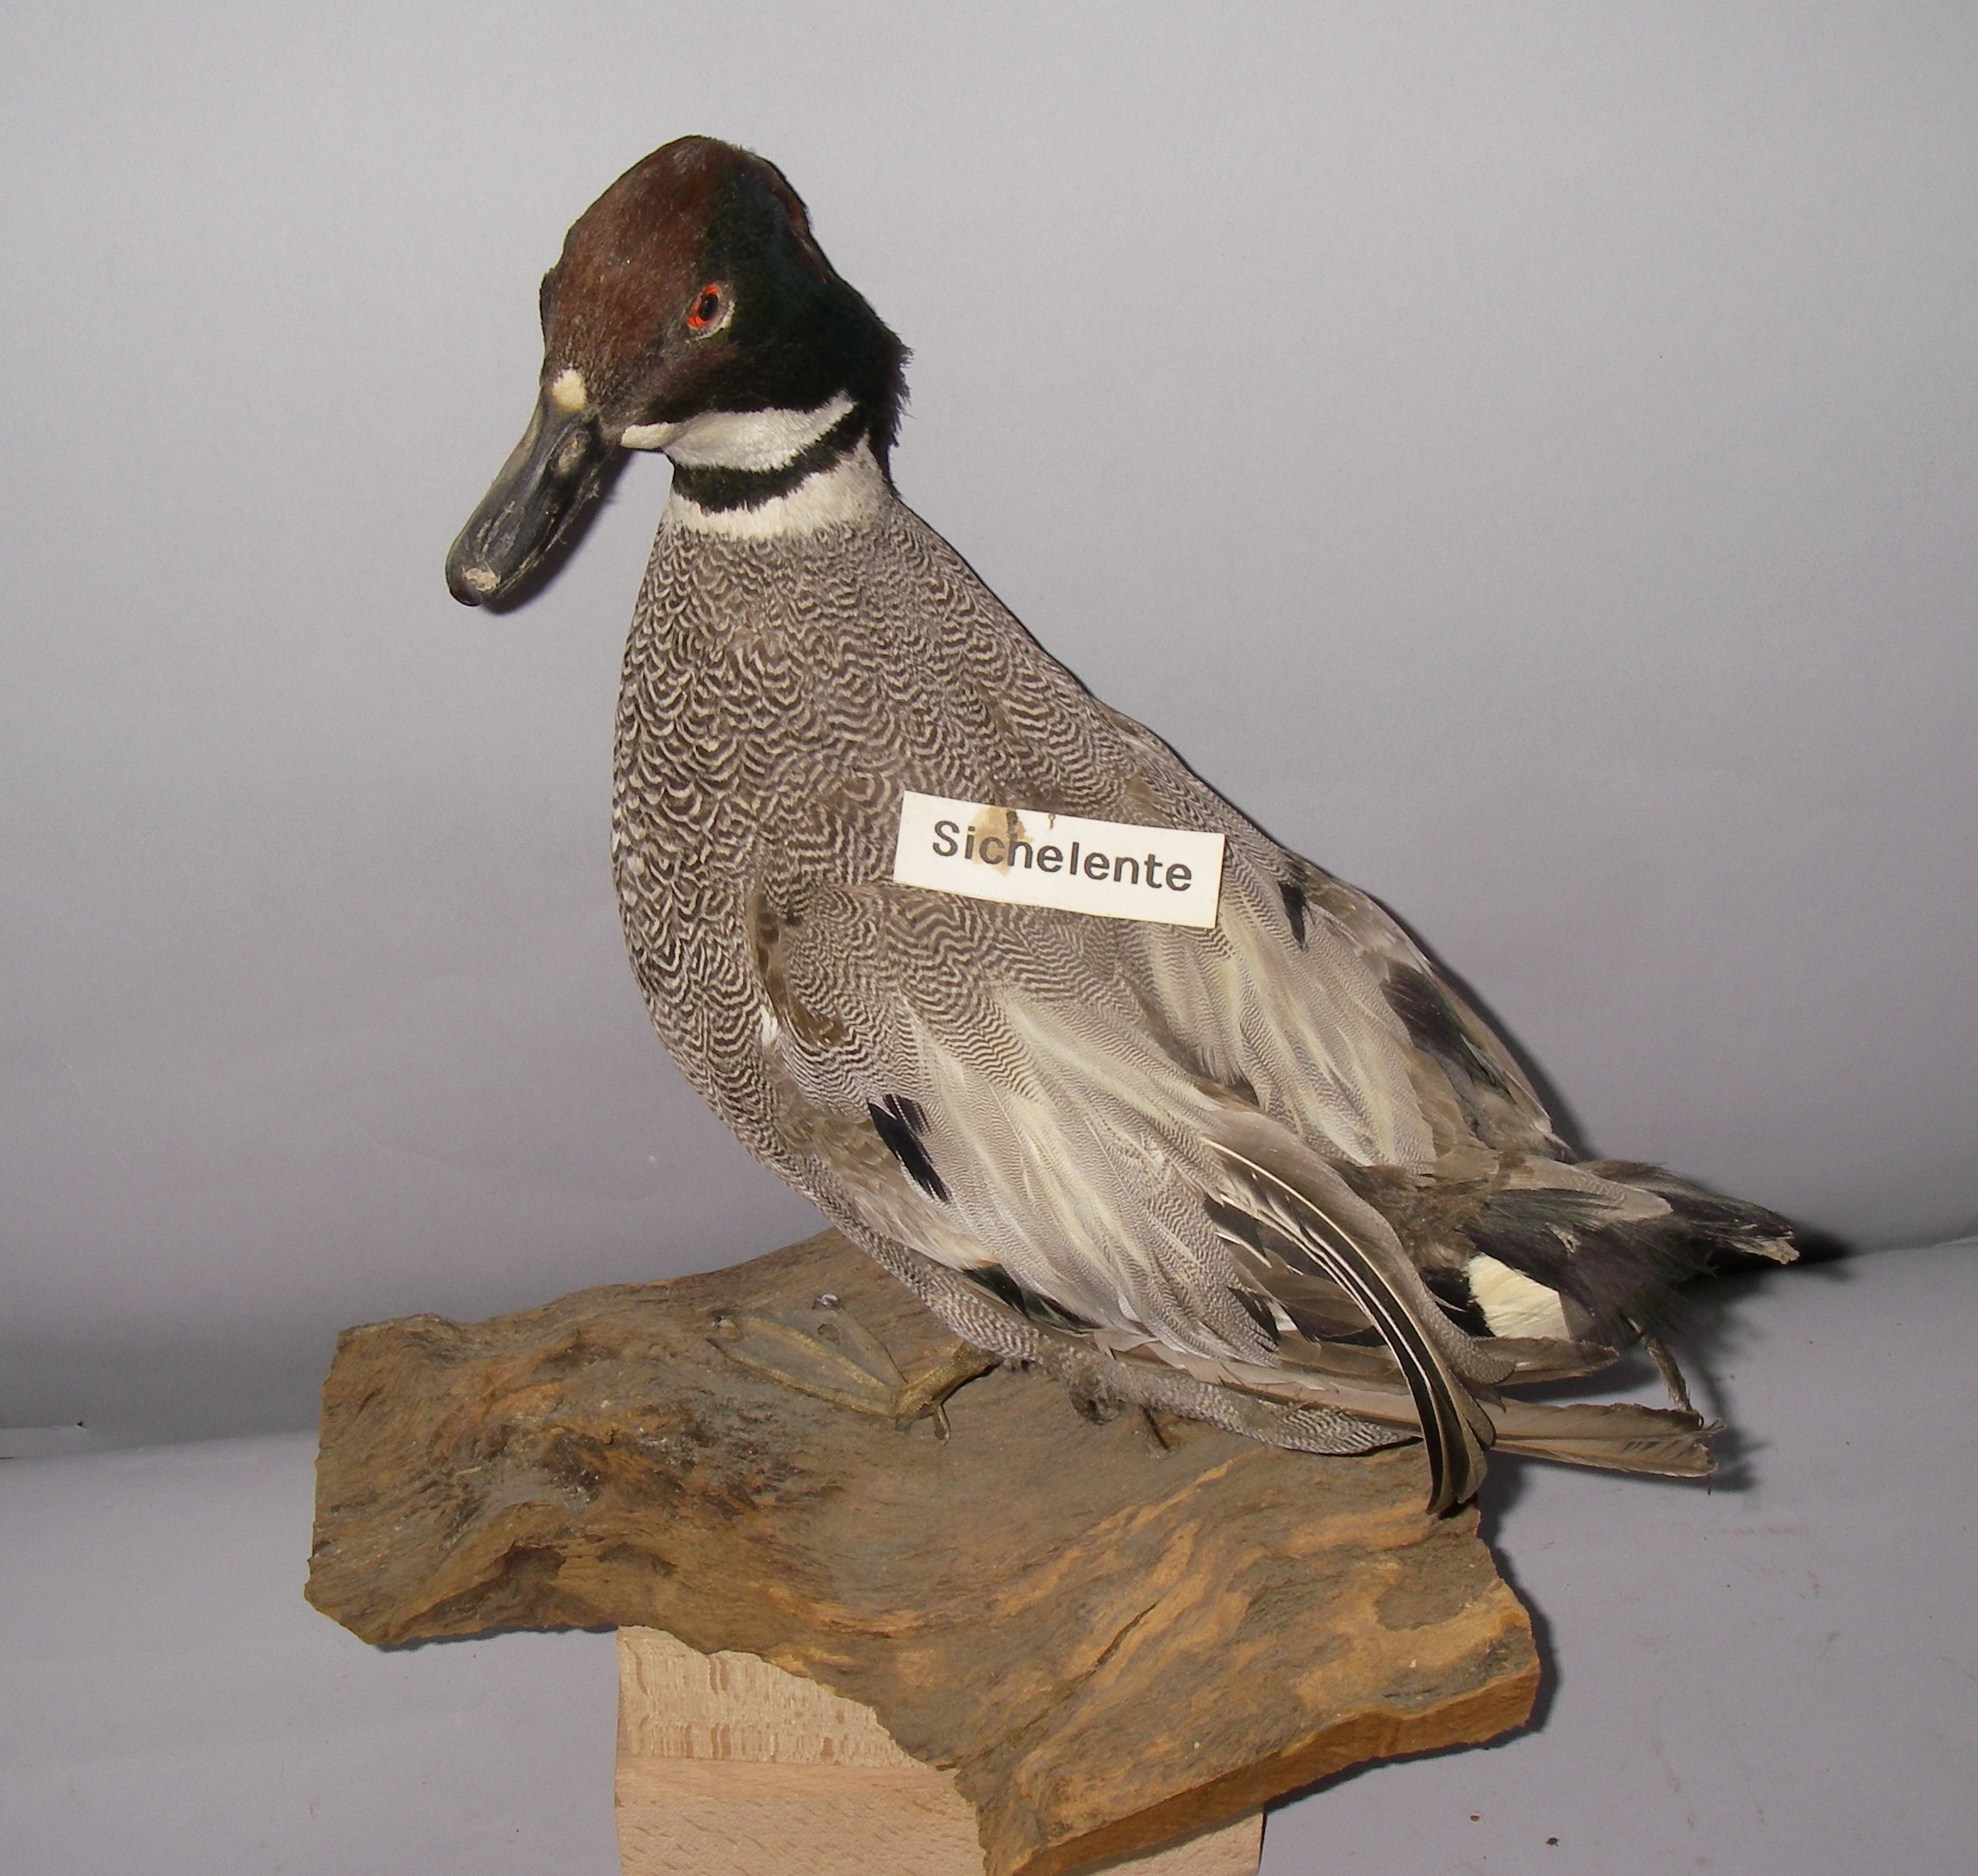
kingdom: Animalia
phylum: Chordata
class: Aves
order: Anseriformes
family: Anatidae
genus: Mareca
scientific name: Mareca falcata
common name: Falcated duck
